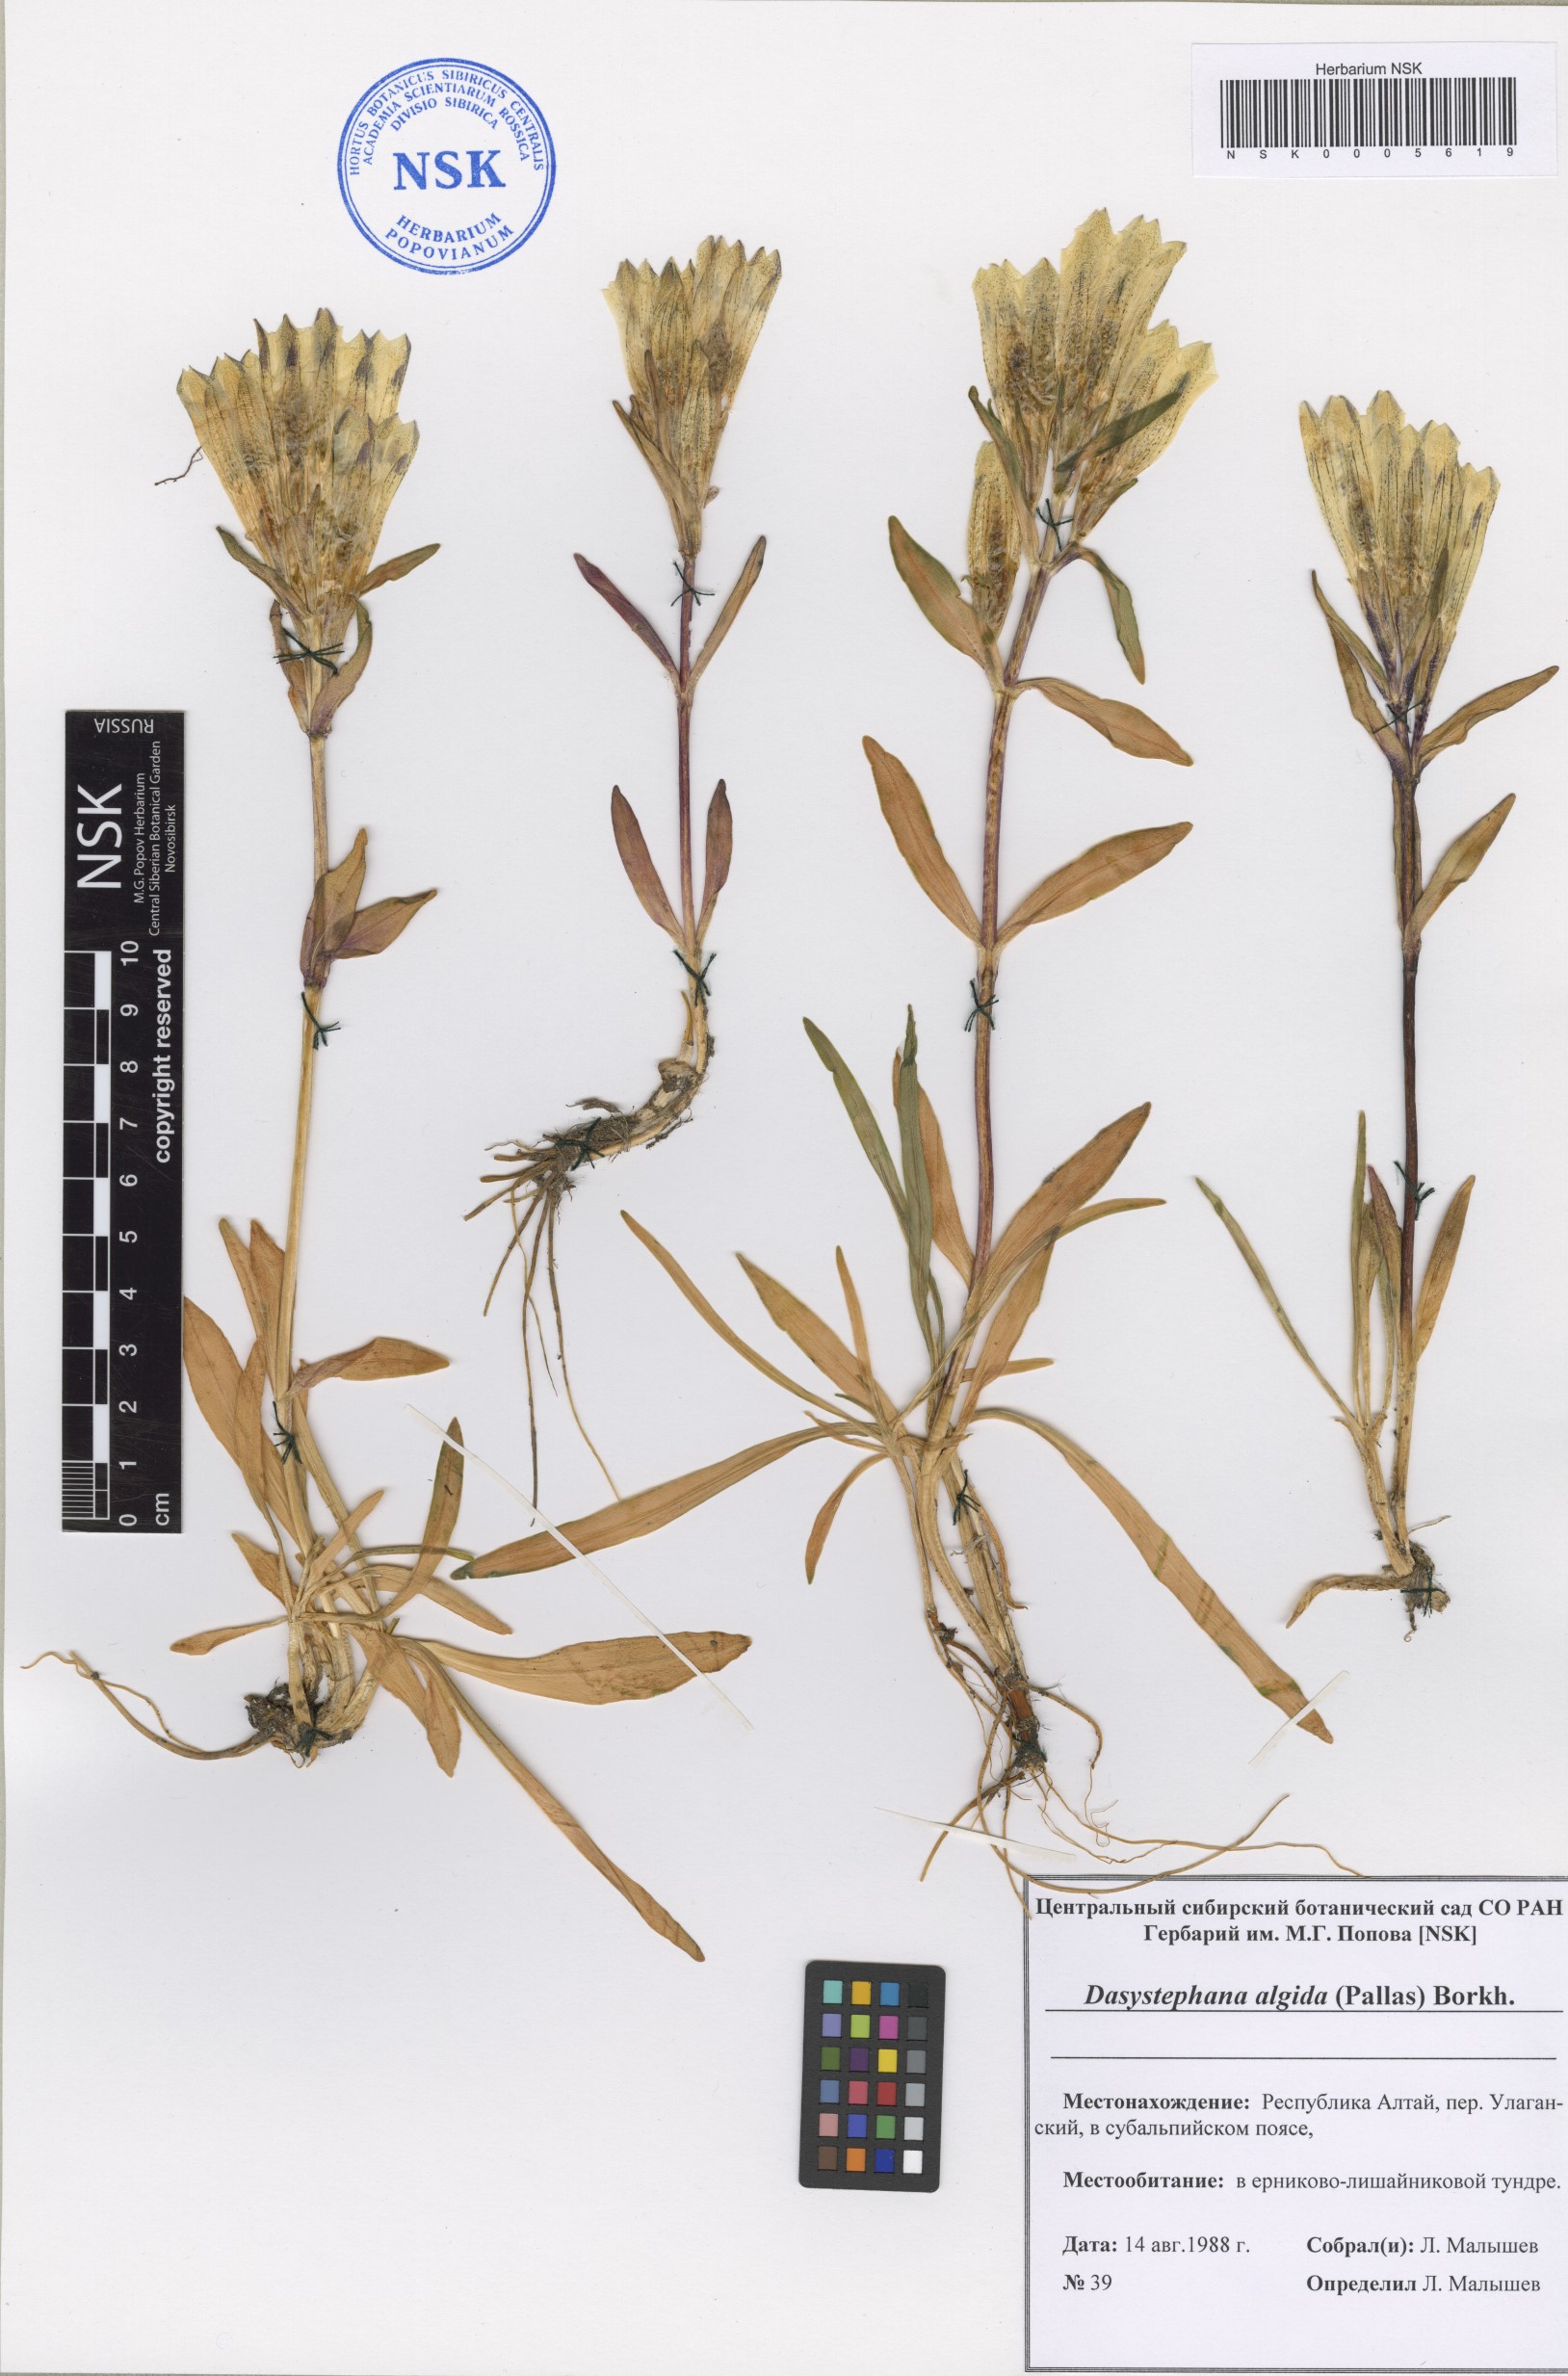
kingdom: Plantae
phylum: Tracheophyta
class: Magnoliopsida
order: Gentianales
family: Gentianaceae
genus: Gentiana
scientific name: Gentiana algida
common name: Arctic gentian
